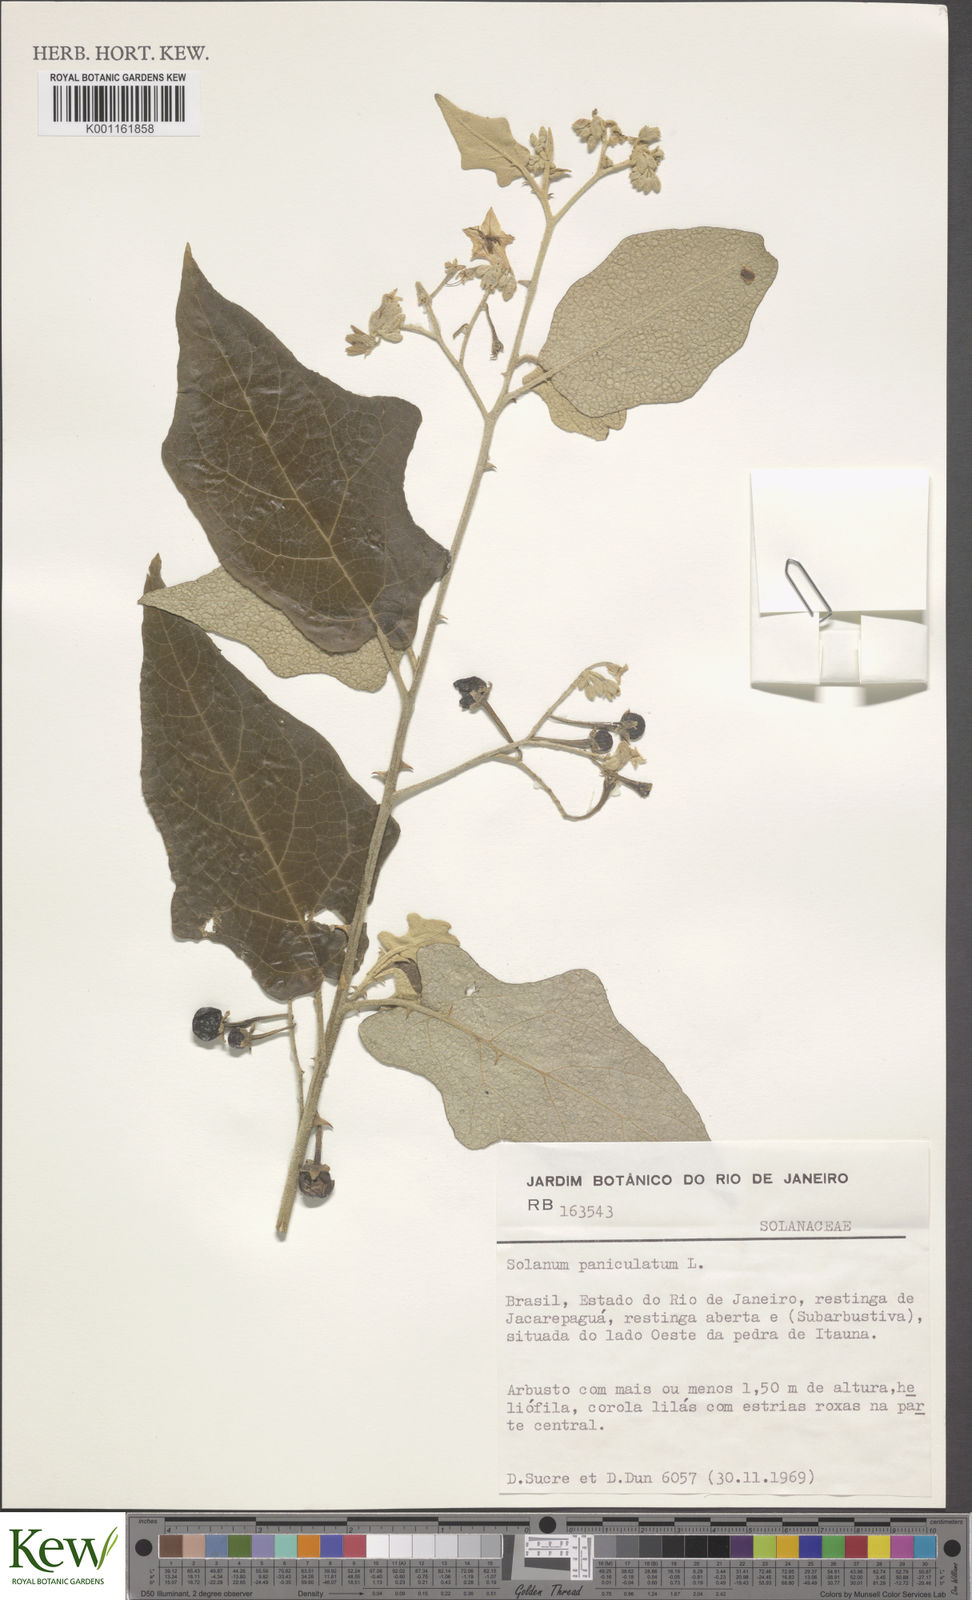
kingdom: Plantae
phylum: Tracheophyta
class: Magnoliopsida
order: Solanales
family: Solanaceae
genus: Solanum
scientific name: Solanum paniculatum
